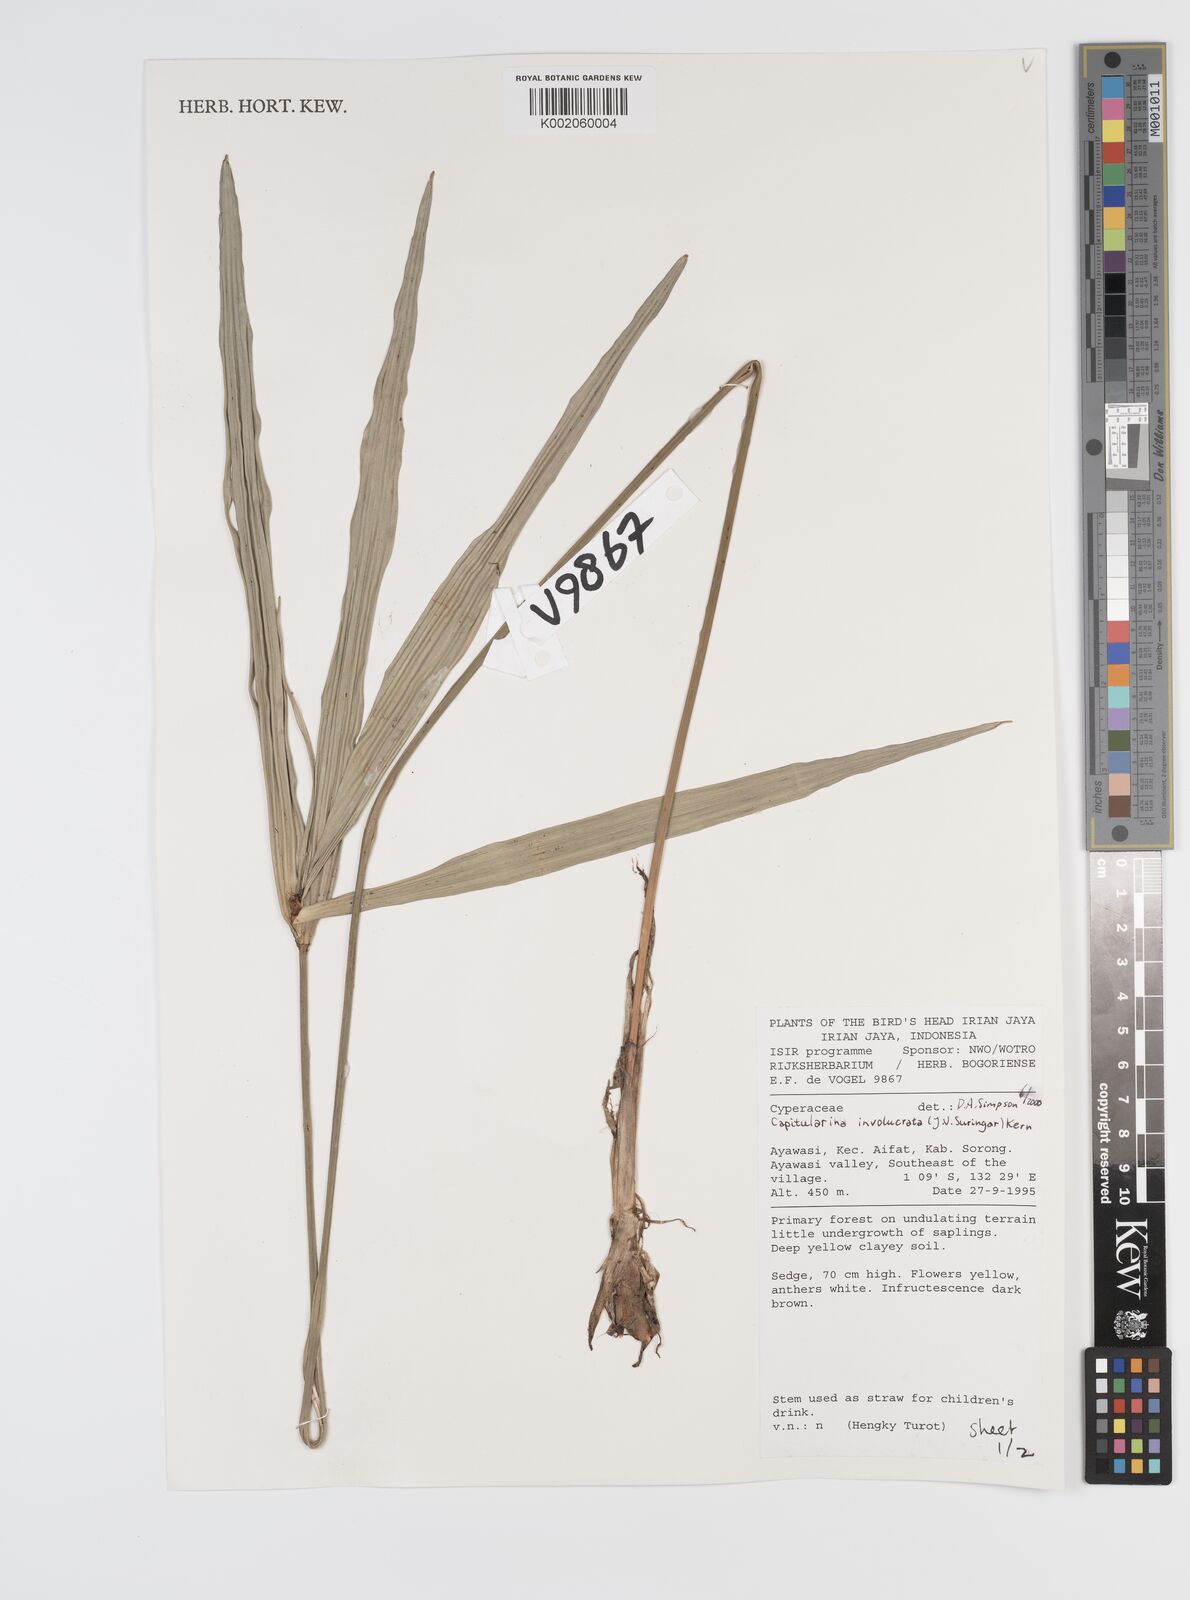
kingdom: Plantae
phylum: Tracheophyta
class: Liliopsida
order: Poales
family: Cyperaceae
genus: Capitularina
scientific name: Capitularina involucrata
